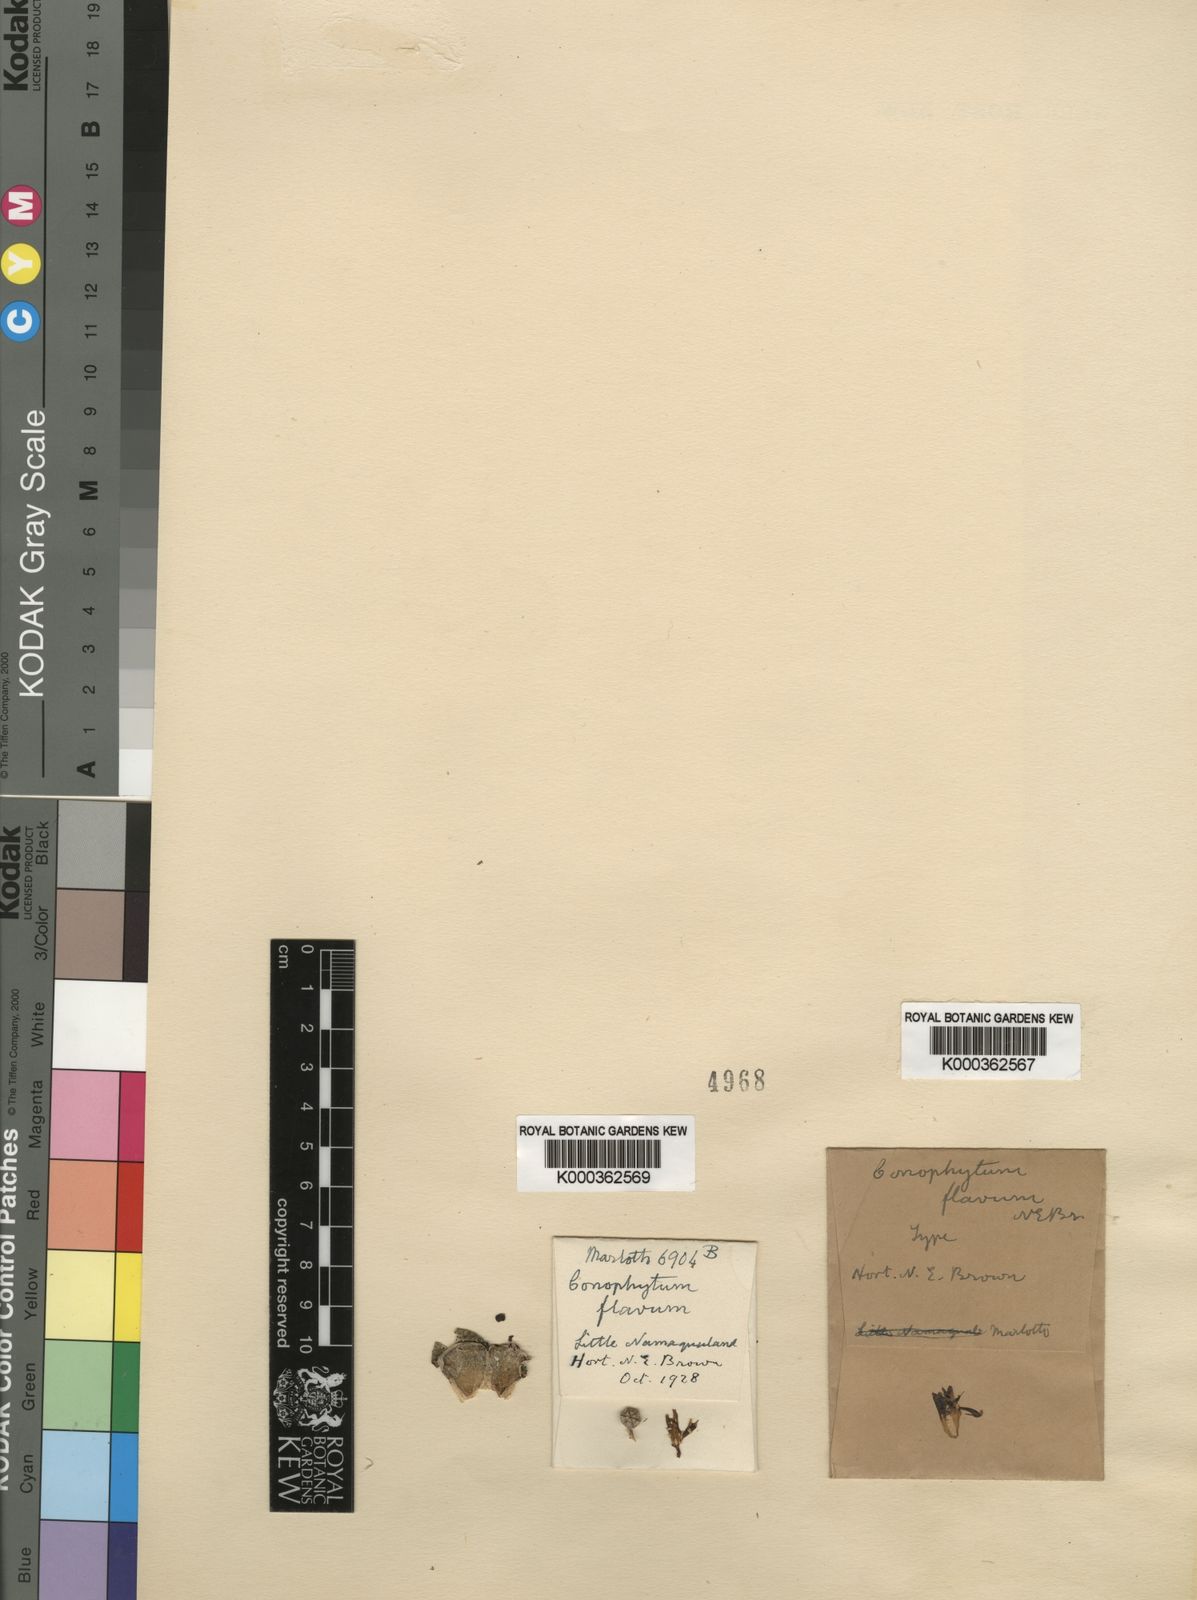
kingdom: Plantae
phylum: Tracheophyta
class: Magnoliopsida
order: Caryophyllales
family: Aizoaceae
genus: Conophytum
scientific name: Conophytum flavum
